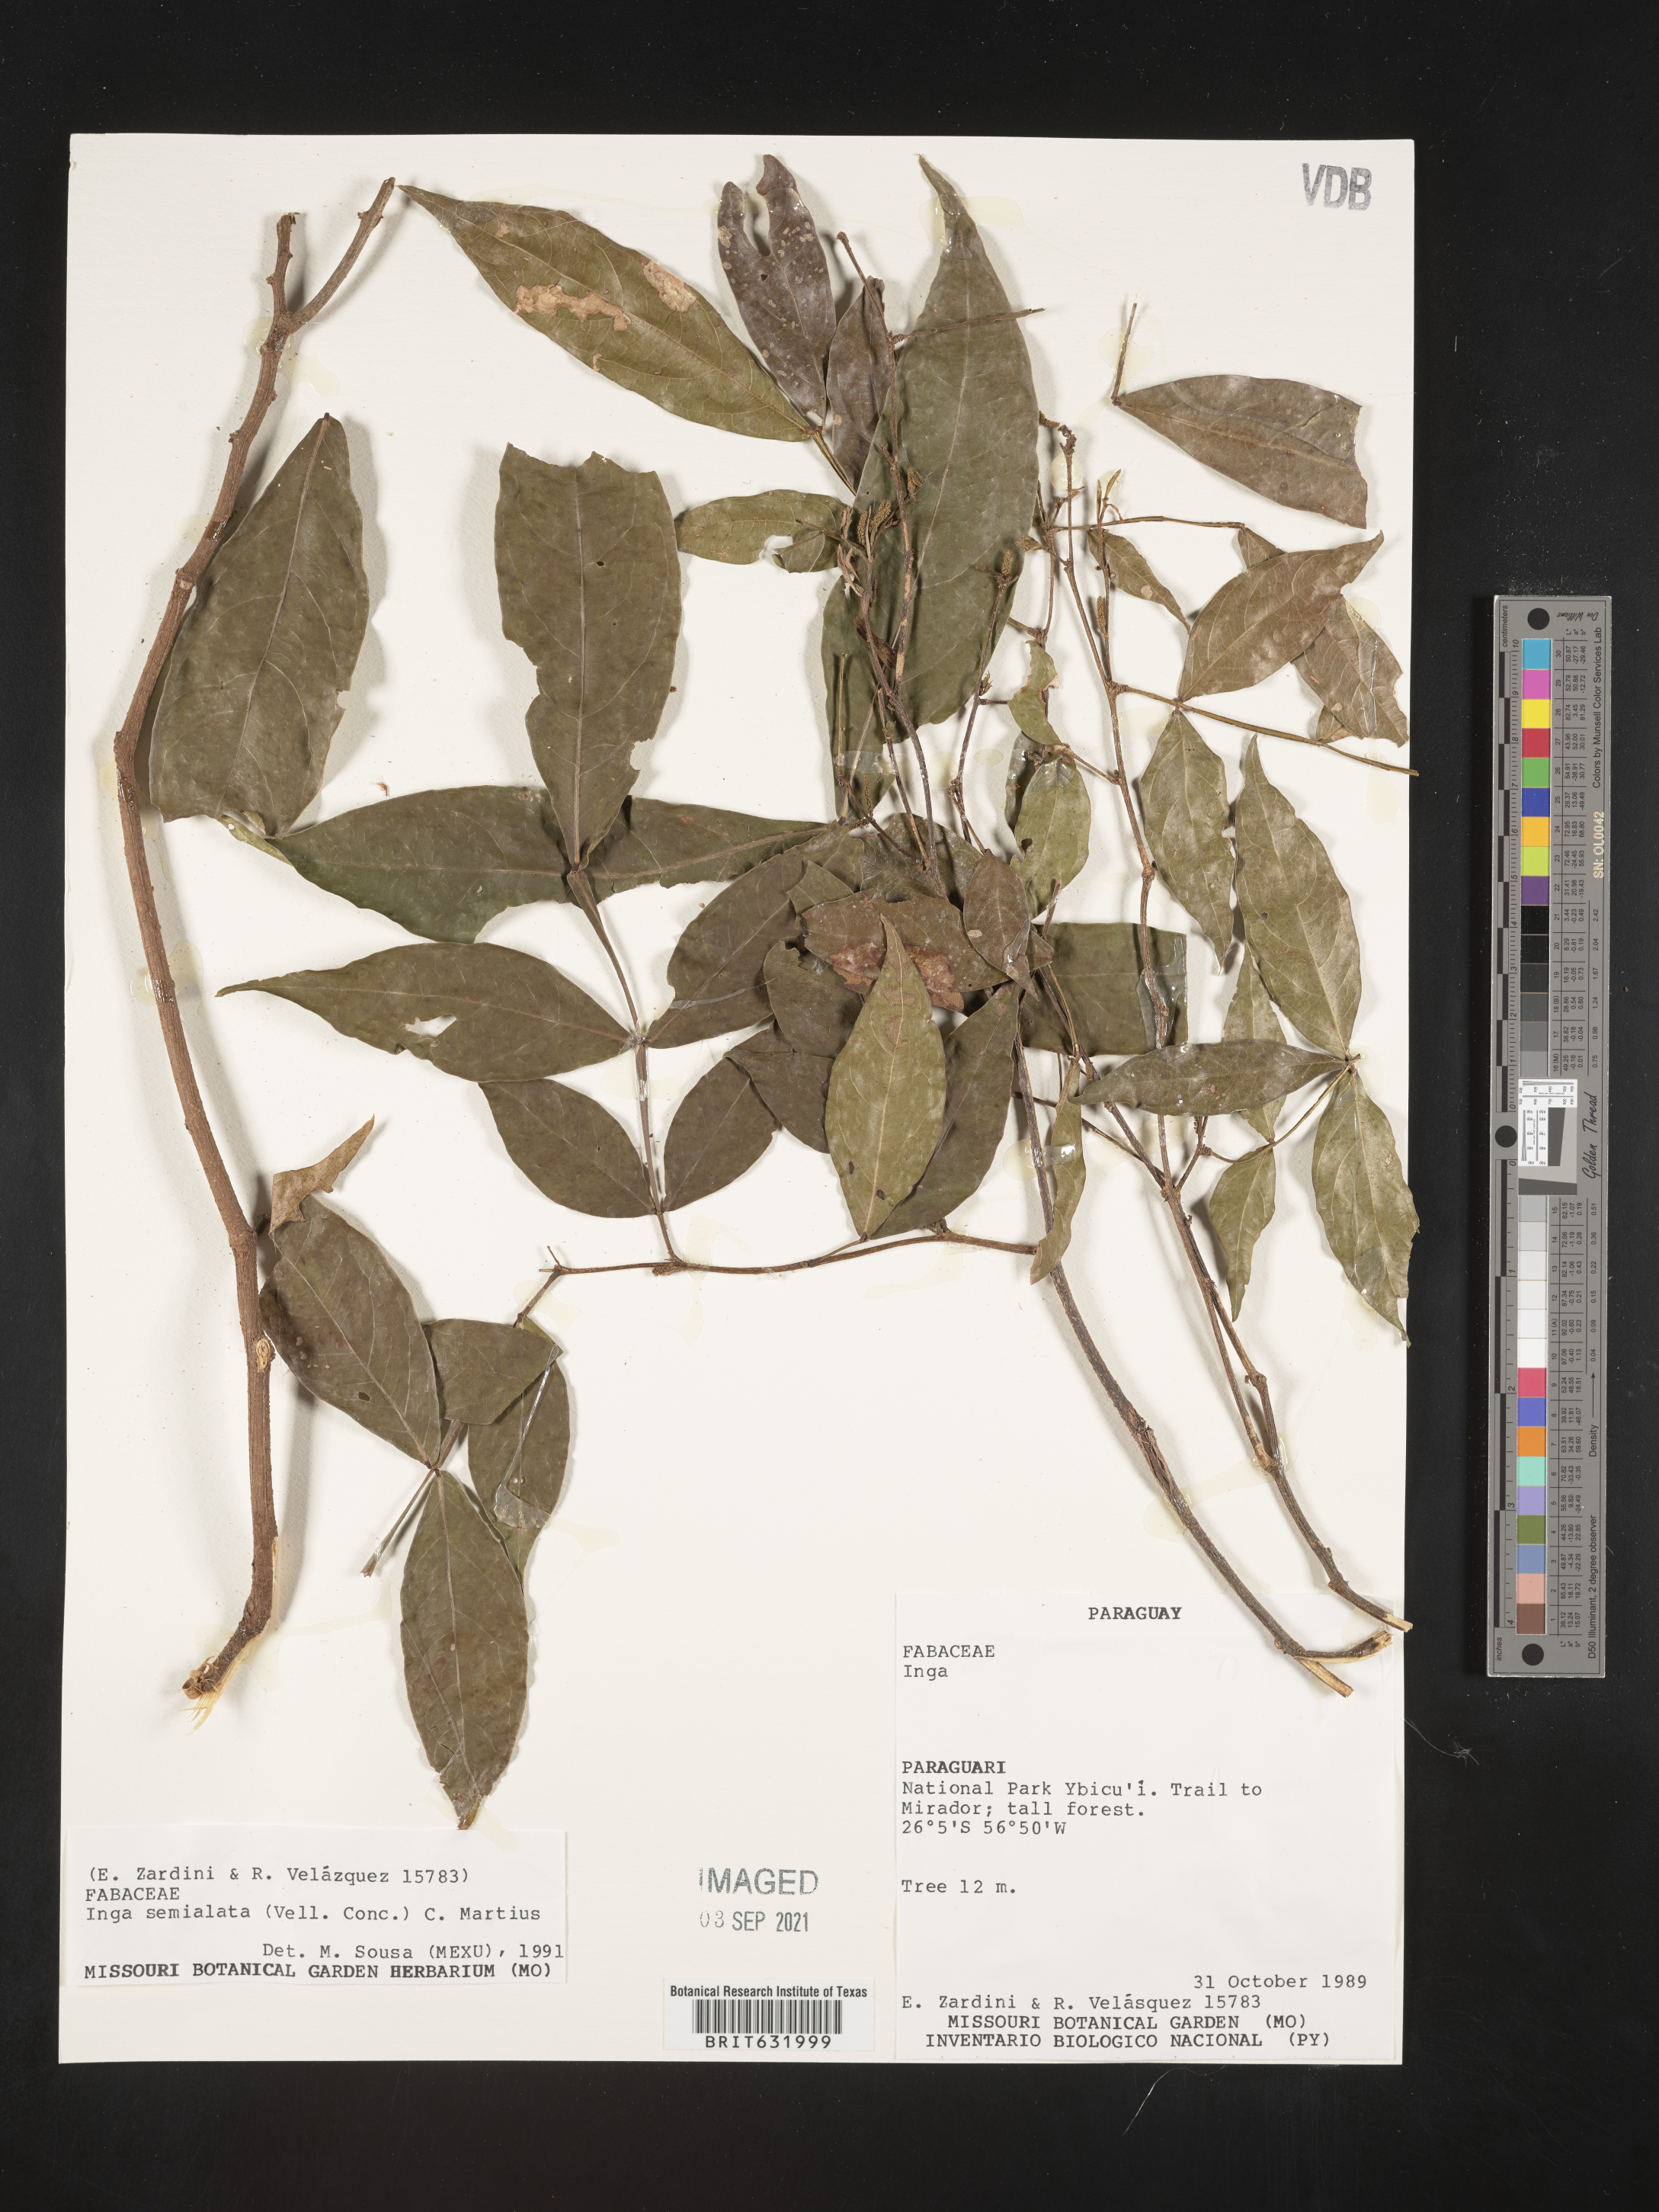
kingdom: Plantae
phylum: Tracheophyta
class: Magnoliopsida
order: Fabales
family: Fabaceae
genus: Inga
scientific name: Inga
